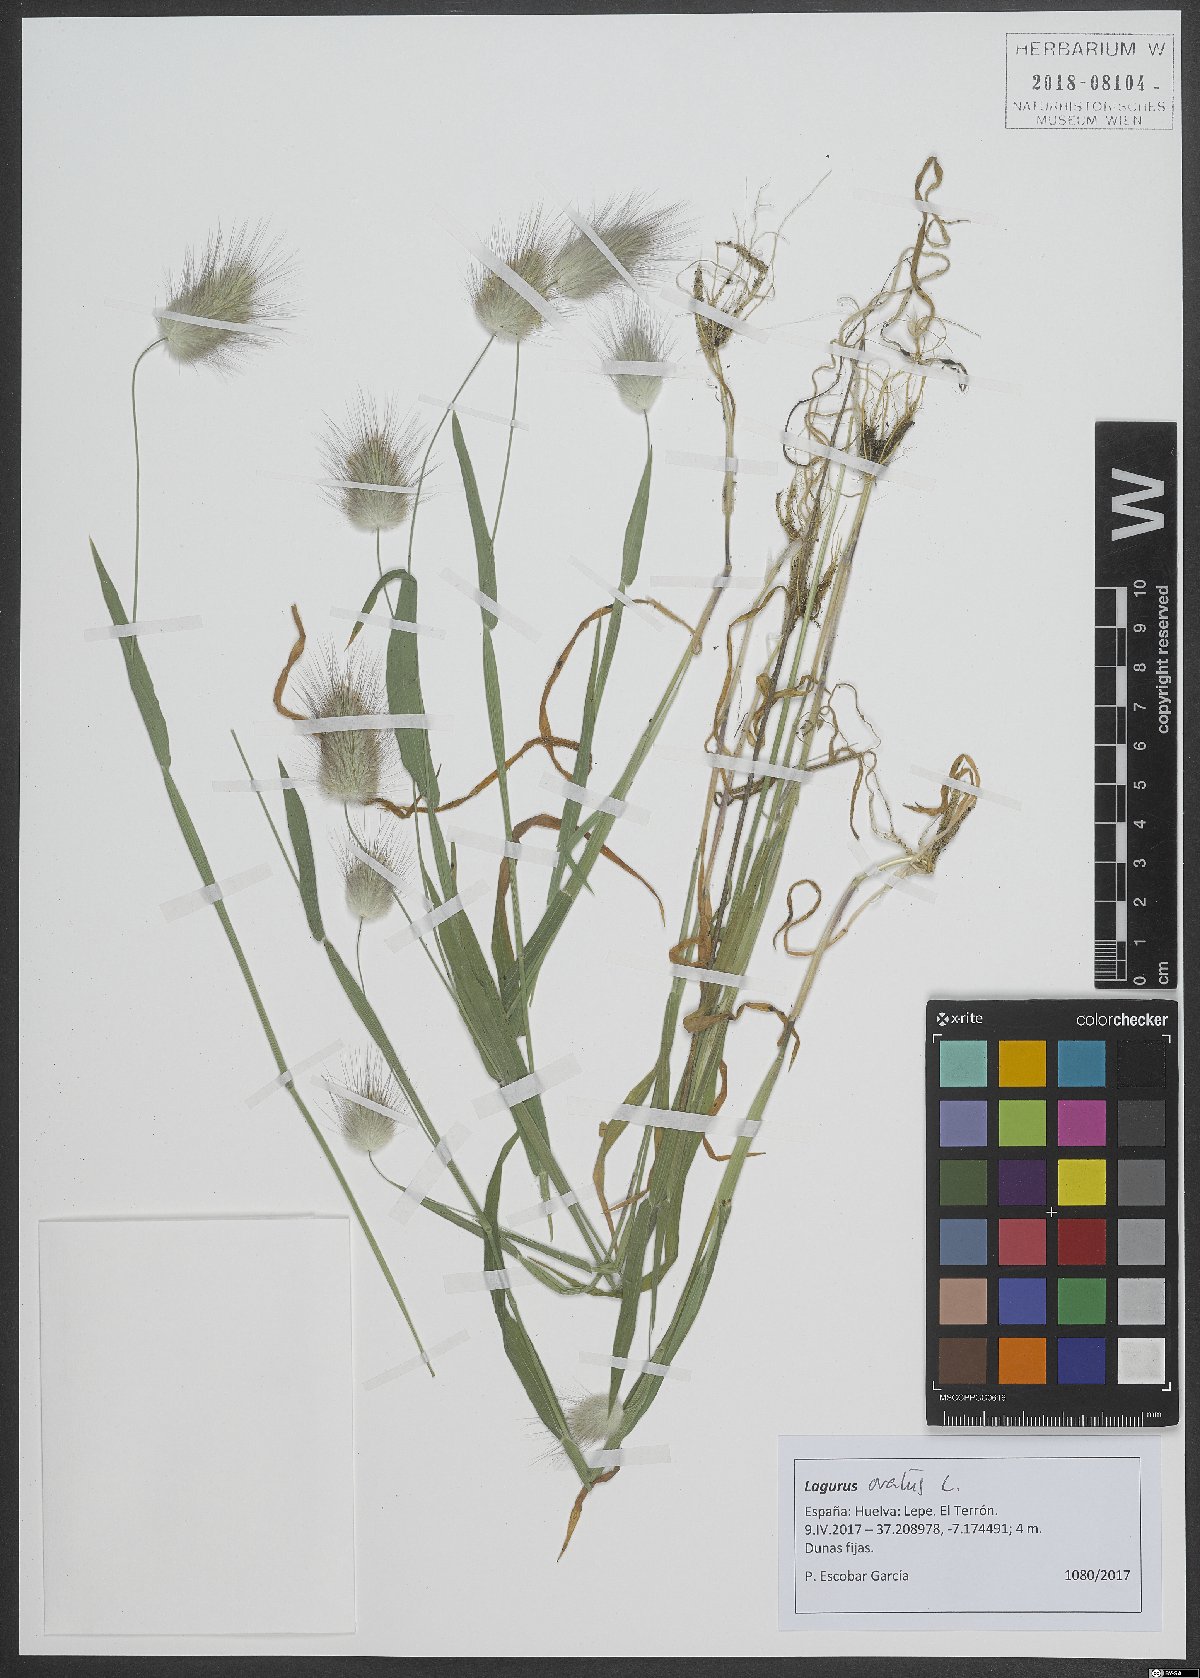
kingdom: Plantae
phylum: Tracheophyta
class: Liliopsida
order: Poales
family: Poaceae
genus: Lagurus
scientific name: Lagurus ovatus
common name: Hare's-tail
